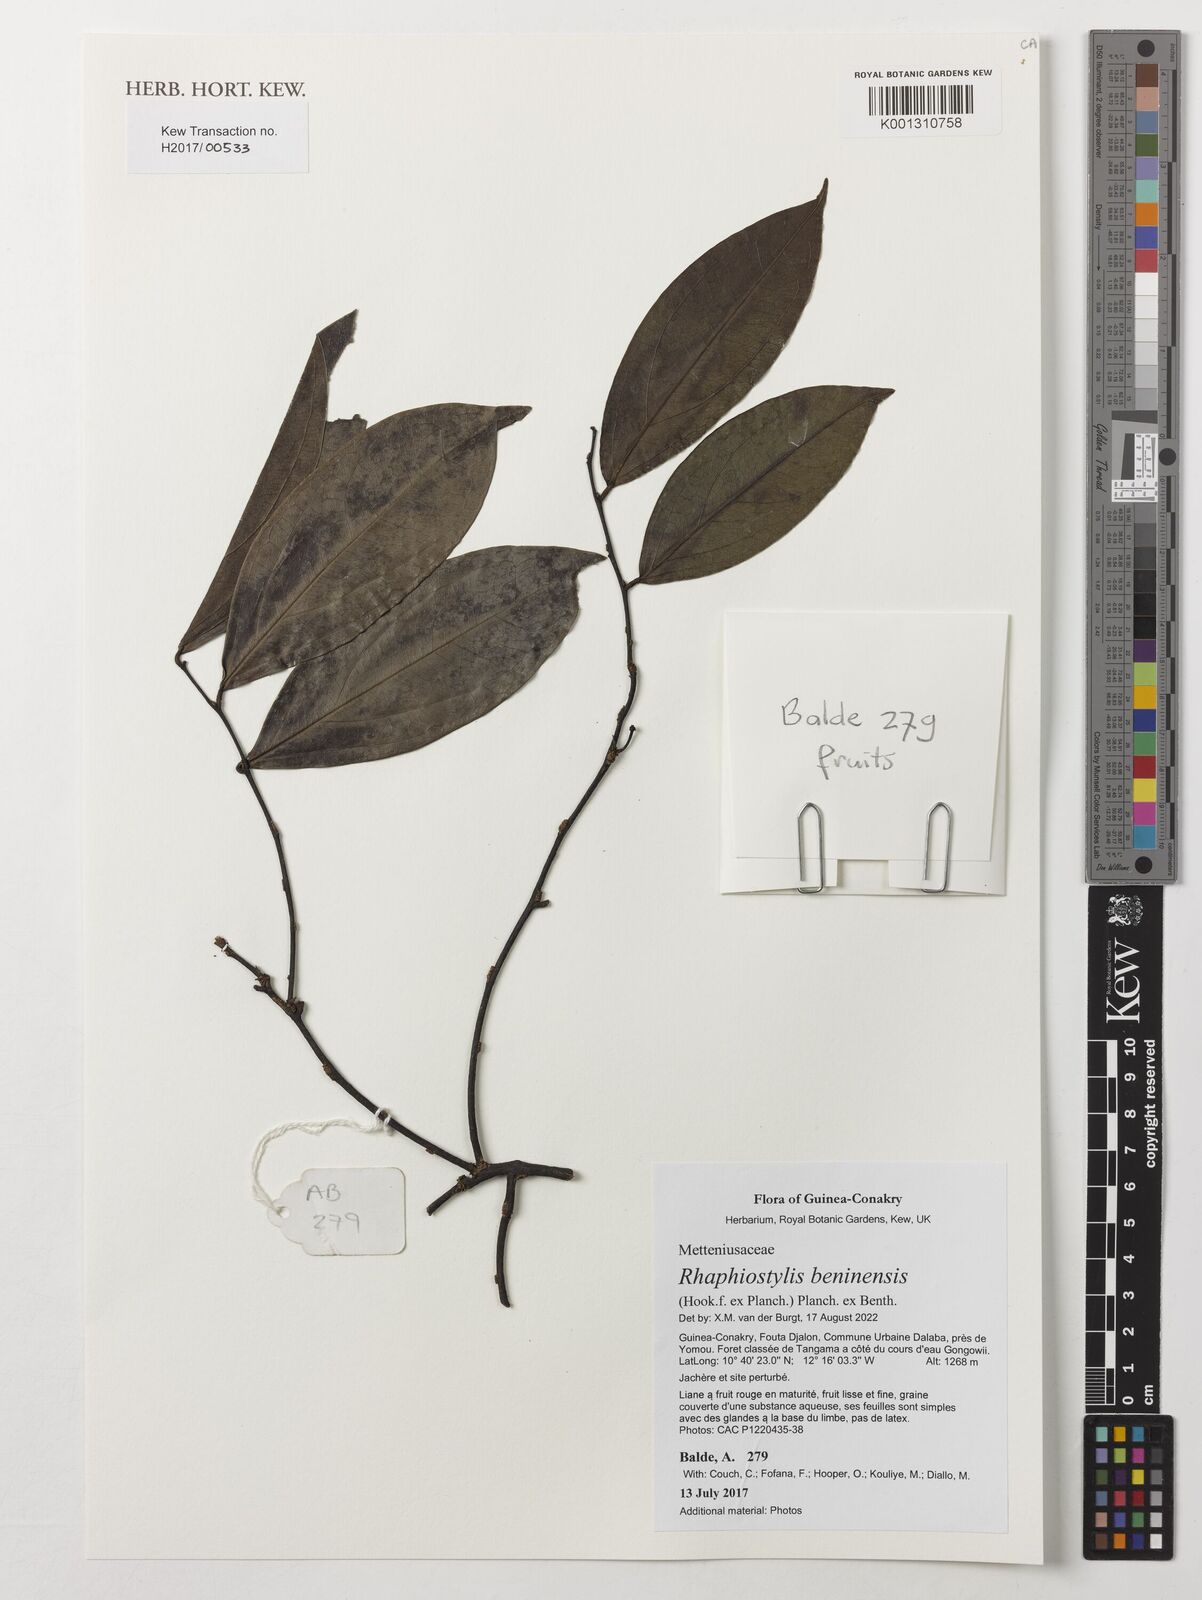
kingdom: Plantae
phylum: Tracheophyta
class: Magnoliopsida
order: Metteniusales
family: Metteniusaceae
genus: Rhaphiostylis
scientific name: Rhaphiostylis beninensis
